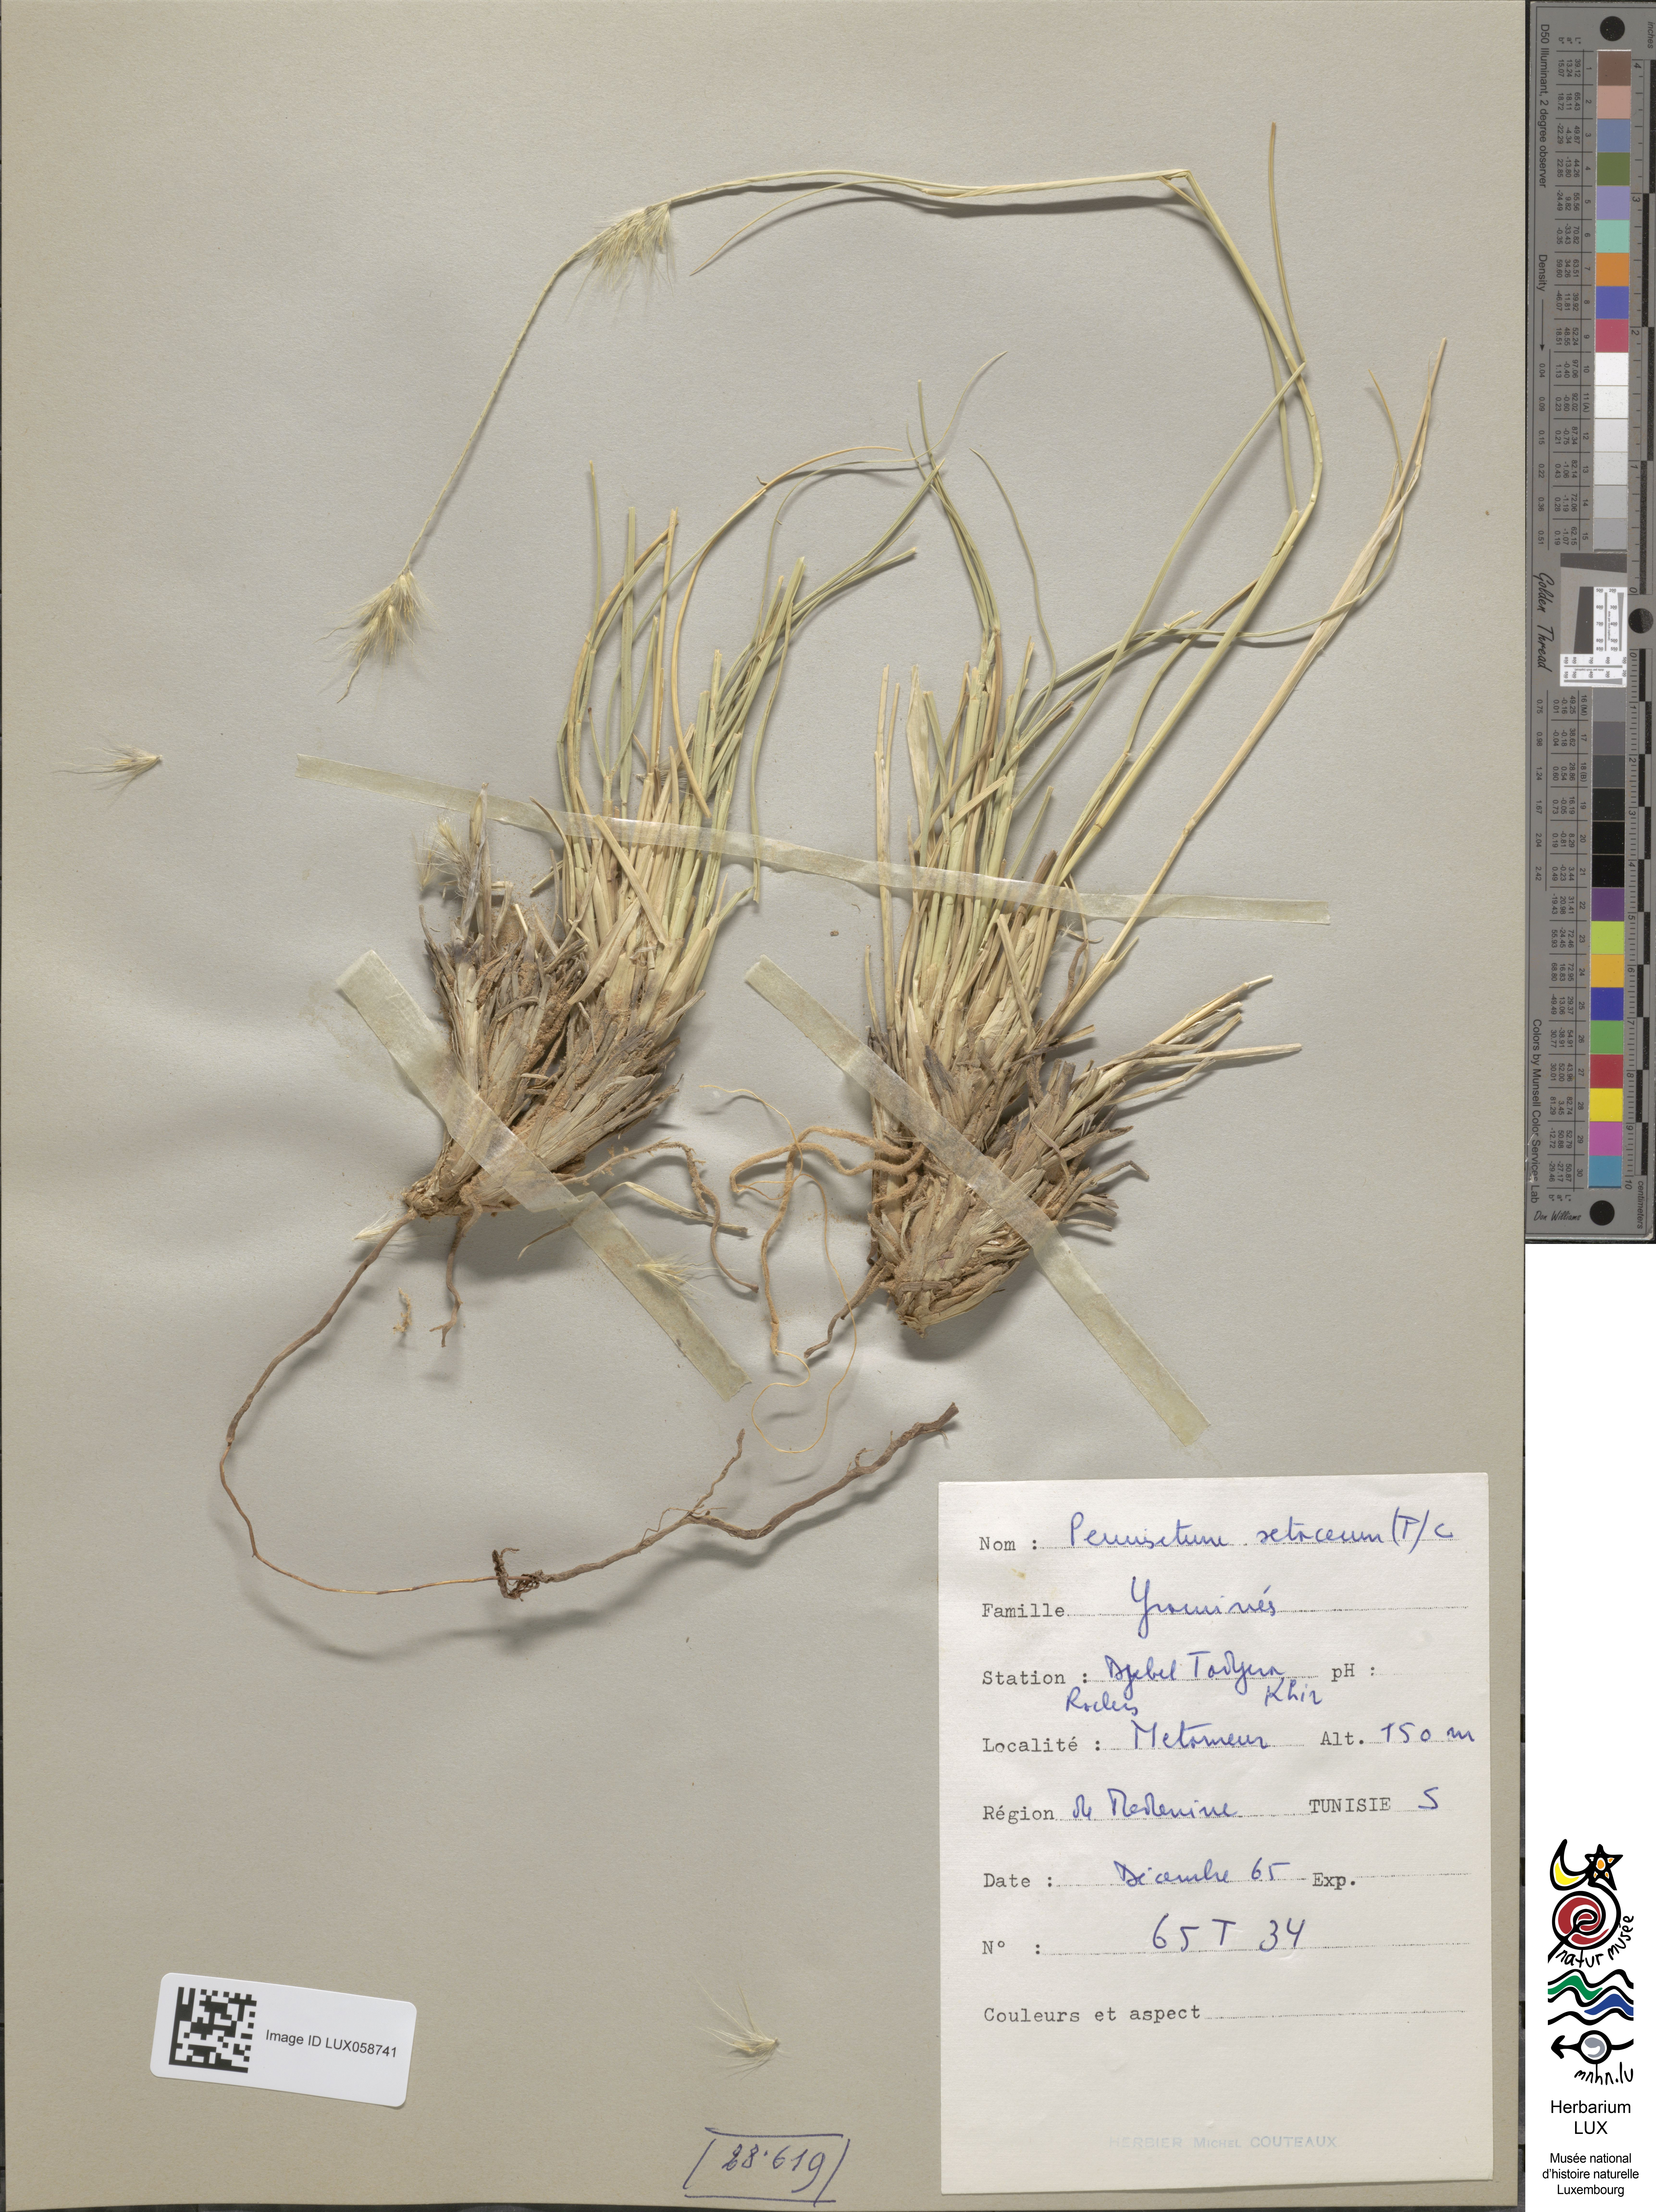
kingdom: Plantae
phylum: Tracheophyta
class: Liliopsida
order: Poales
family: Poaceae
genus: Cenchrus
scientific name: Cenchrus setaceus
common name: Crimson fountaingrass
